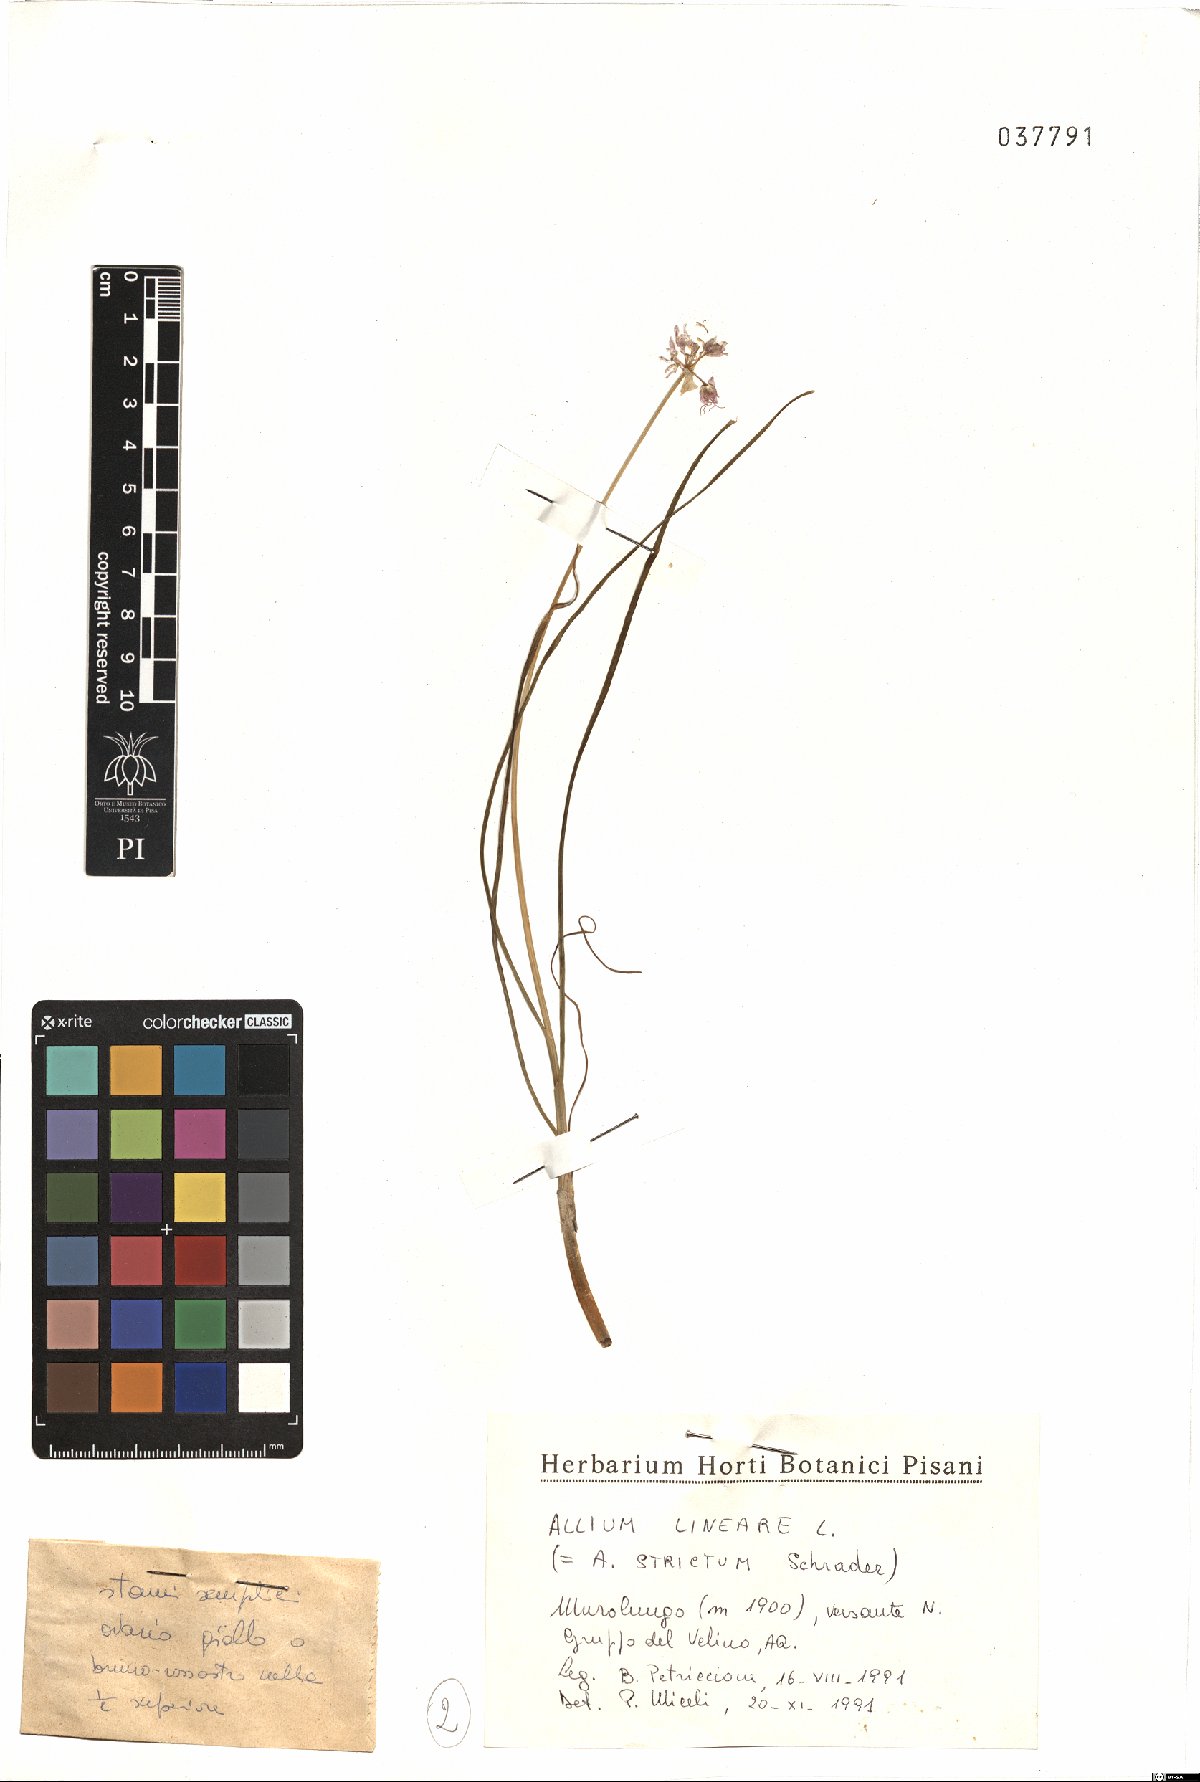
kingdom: Plantae
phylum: Tracheophyta
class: Liliopsida
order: Asparagales
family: Amaryllidaceae
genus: Allium
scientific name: Allium ducissae
